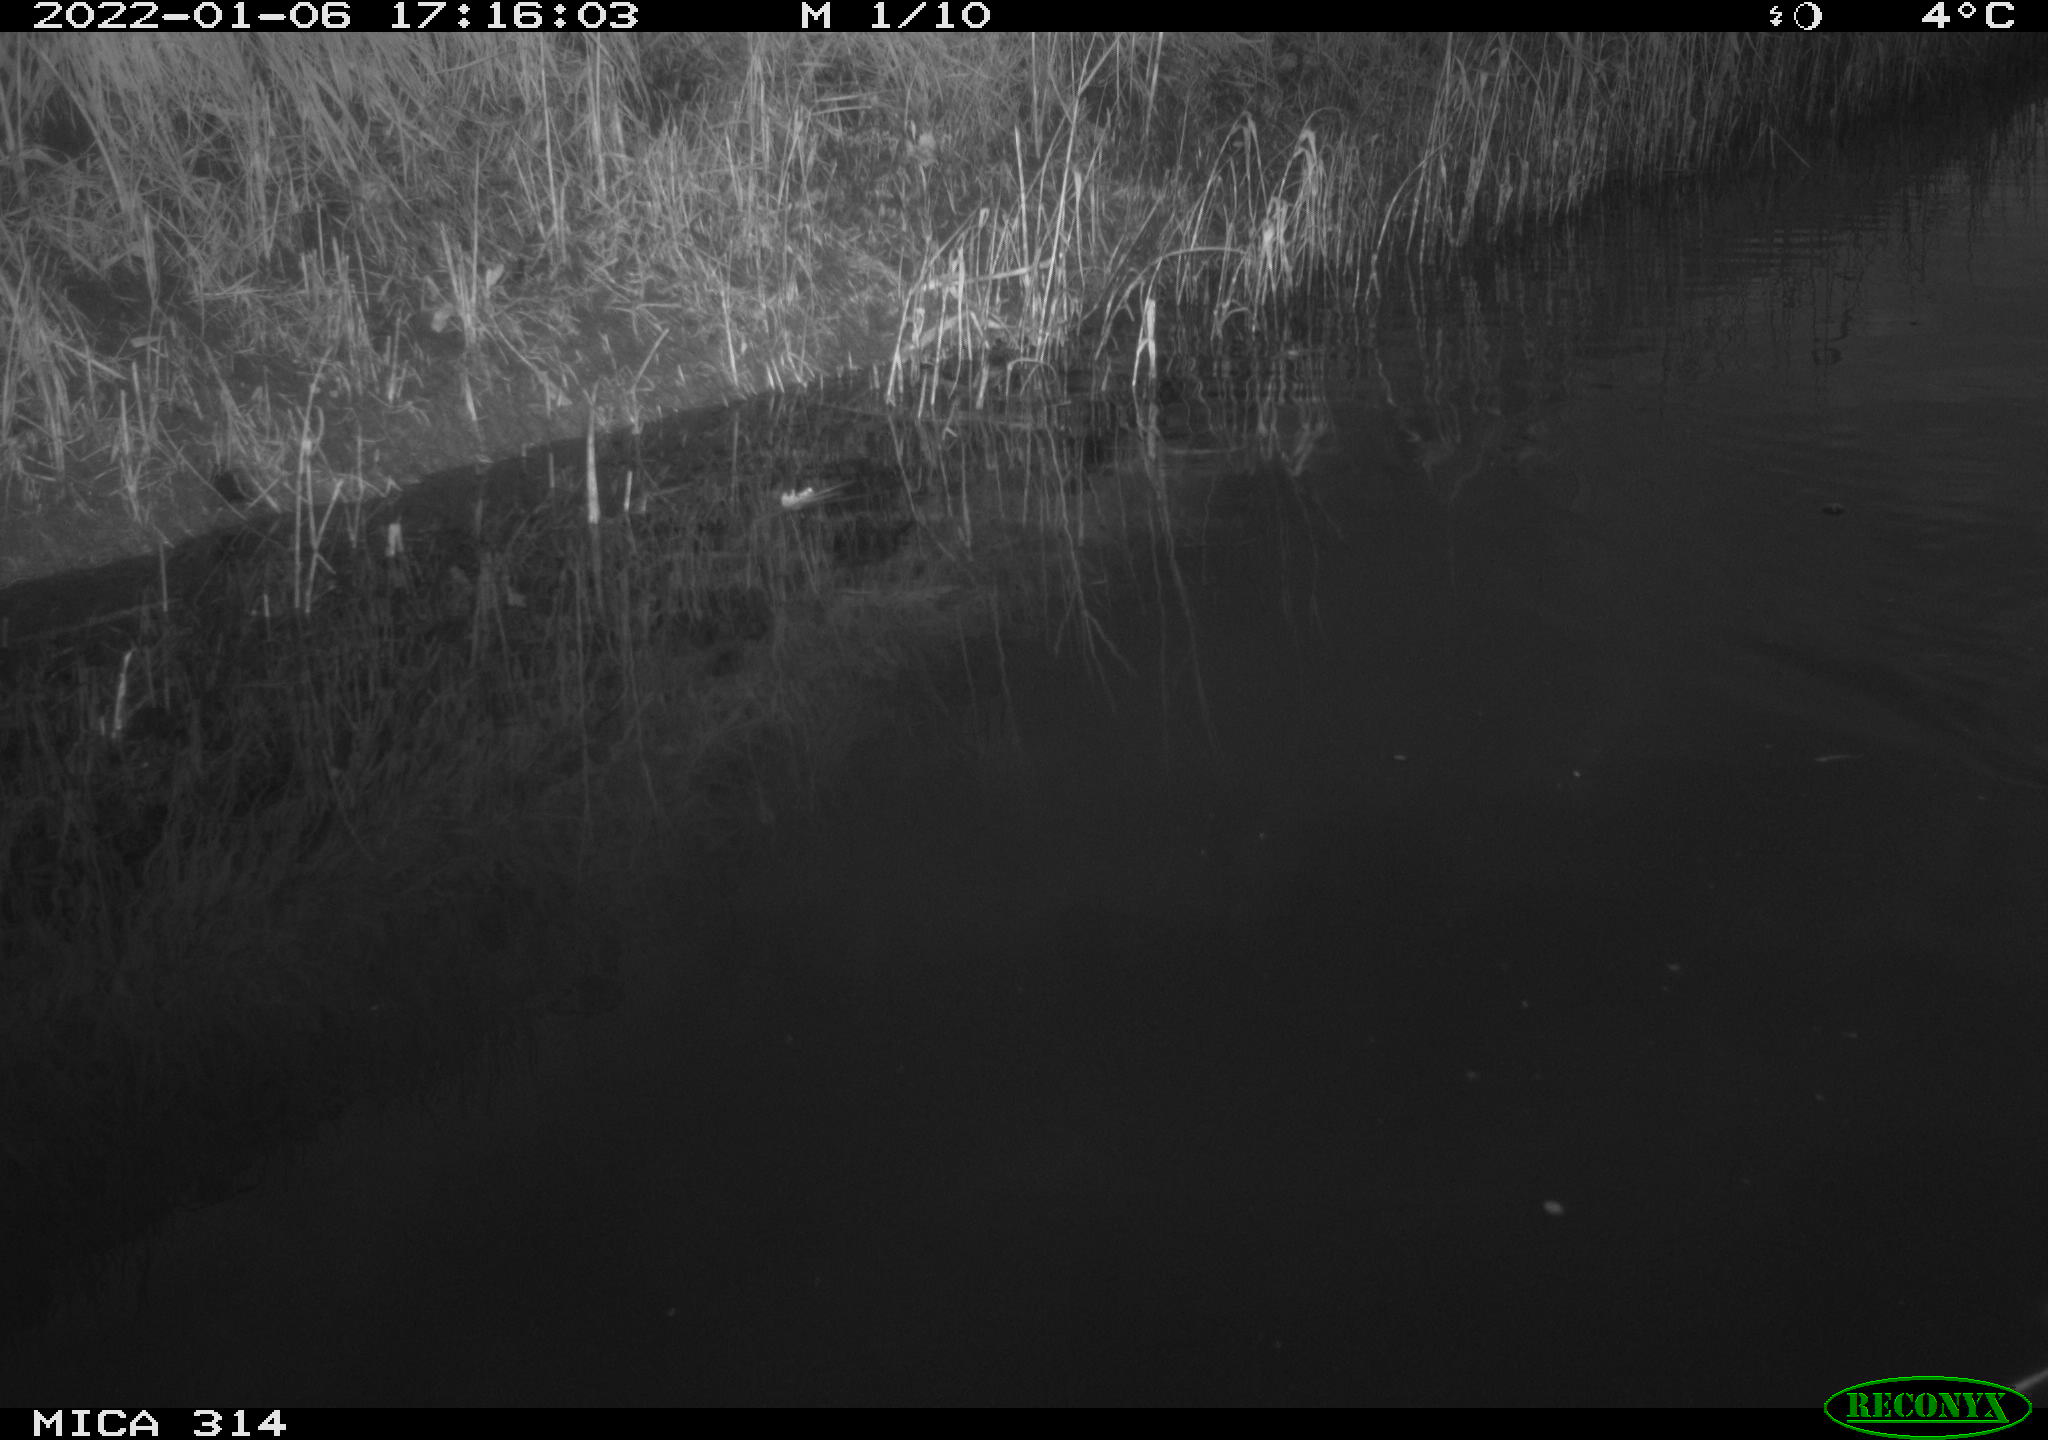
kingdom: Animalia
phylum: Chordata
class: Aves
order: Anseriformes
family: Anatidae
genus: Anas
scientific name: Anas
